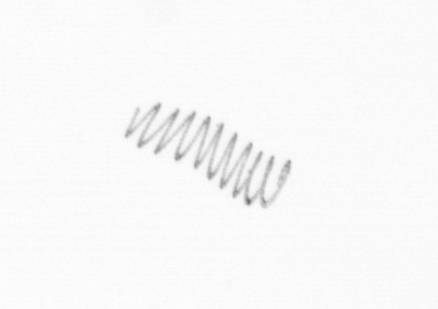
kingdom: Chromista
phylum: Ochrophyta
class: Bacillariophyceae
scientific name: Bacillariophyceae
